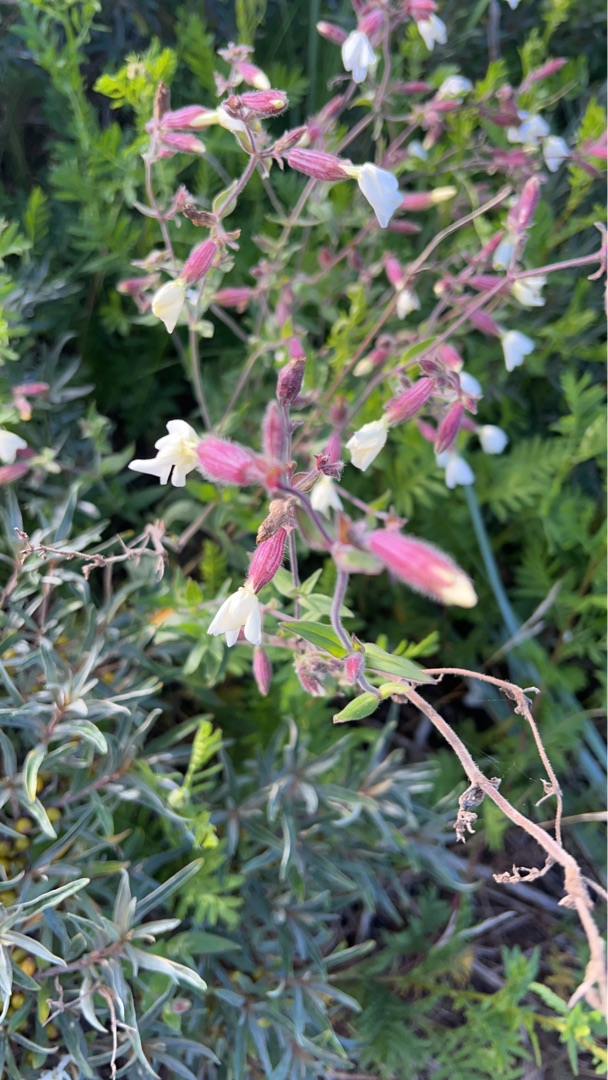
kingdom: Plantae
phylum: Tracheophyta
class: Magnoliopsida
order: Caryophyllales
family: Caryophyllaceae
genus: Silene
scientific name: Silene latifolia
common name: Aftenpragtstjerne
